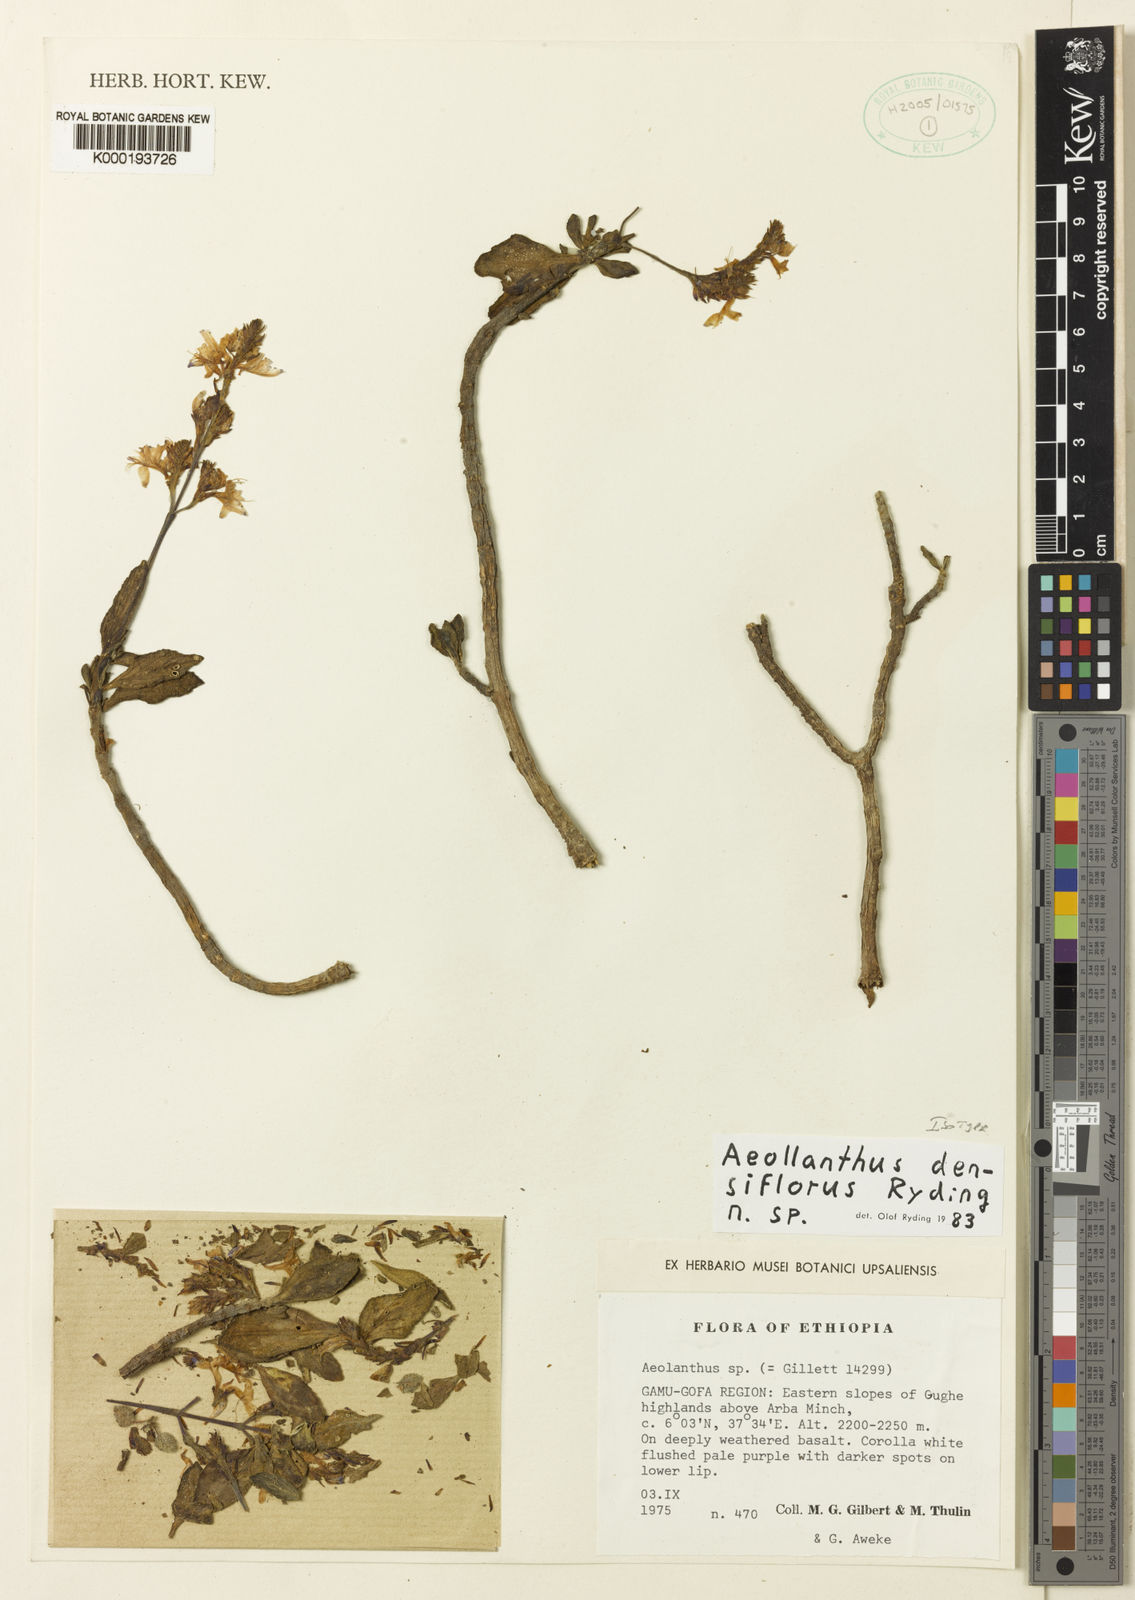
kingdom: Plantae
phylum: Tracheophyta
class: Magnoliopsida
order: Lamiales
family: Lamiaceae
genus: Aeollanthus
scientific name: Aeollanthus densiflorus
